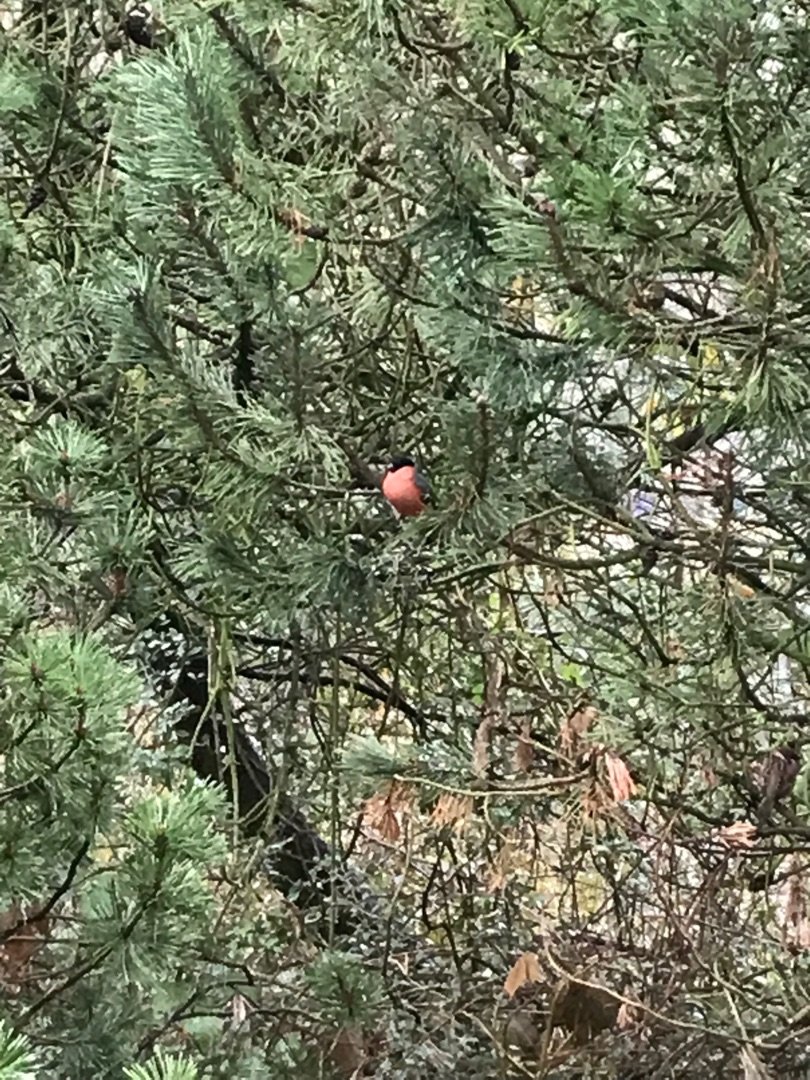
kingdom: Animalia
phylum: Chordata
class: Aves
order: Passeriformes
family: Fringillidae
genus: Pyrrhula
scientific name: Pyrrhula pyrrhula
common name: Dompap
